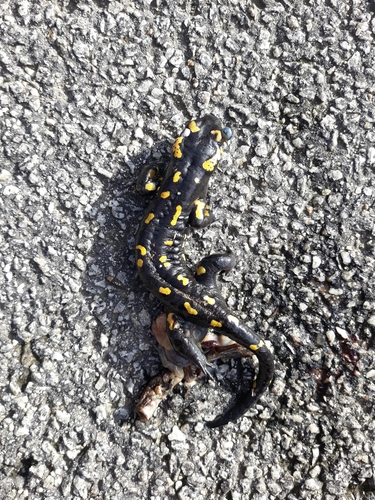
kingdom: Animalia
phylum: Chordata
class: Amphibia
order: Caudata
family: Salamandridae
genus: Salamandra
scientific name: Salamandra salamandra
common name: Fire salamander
